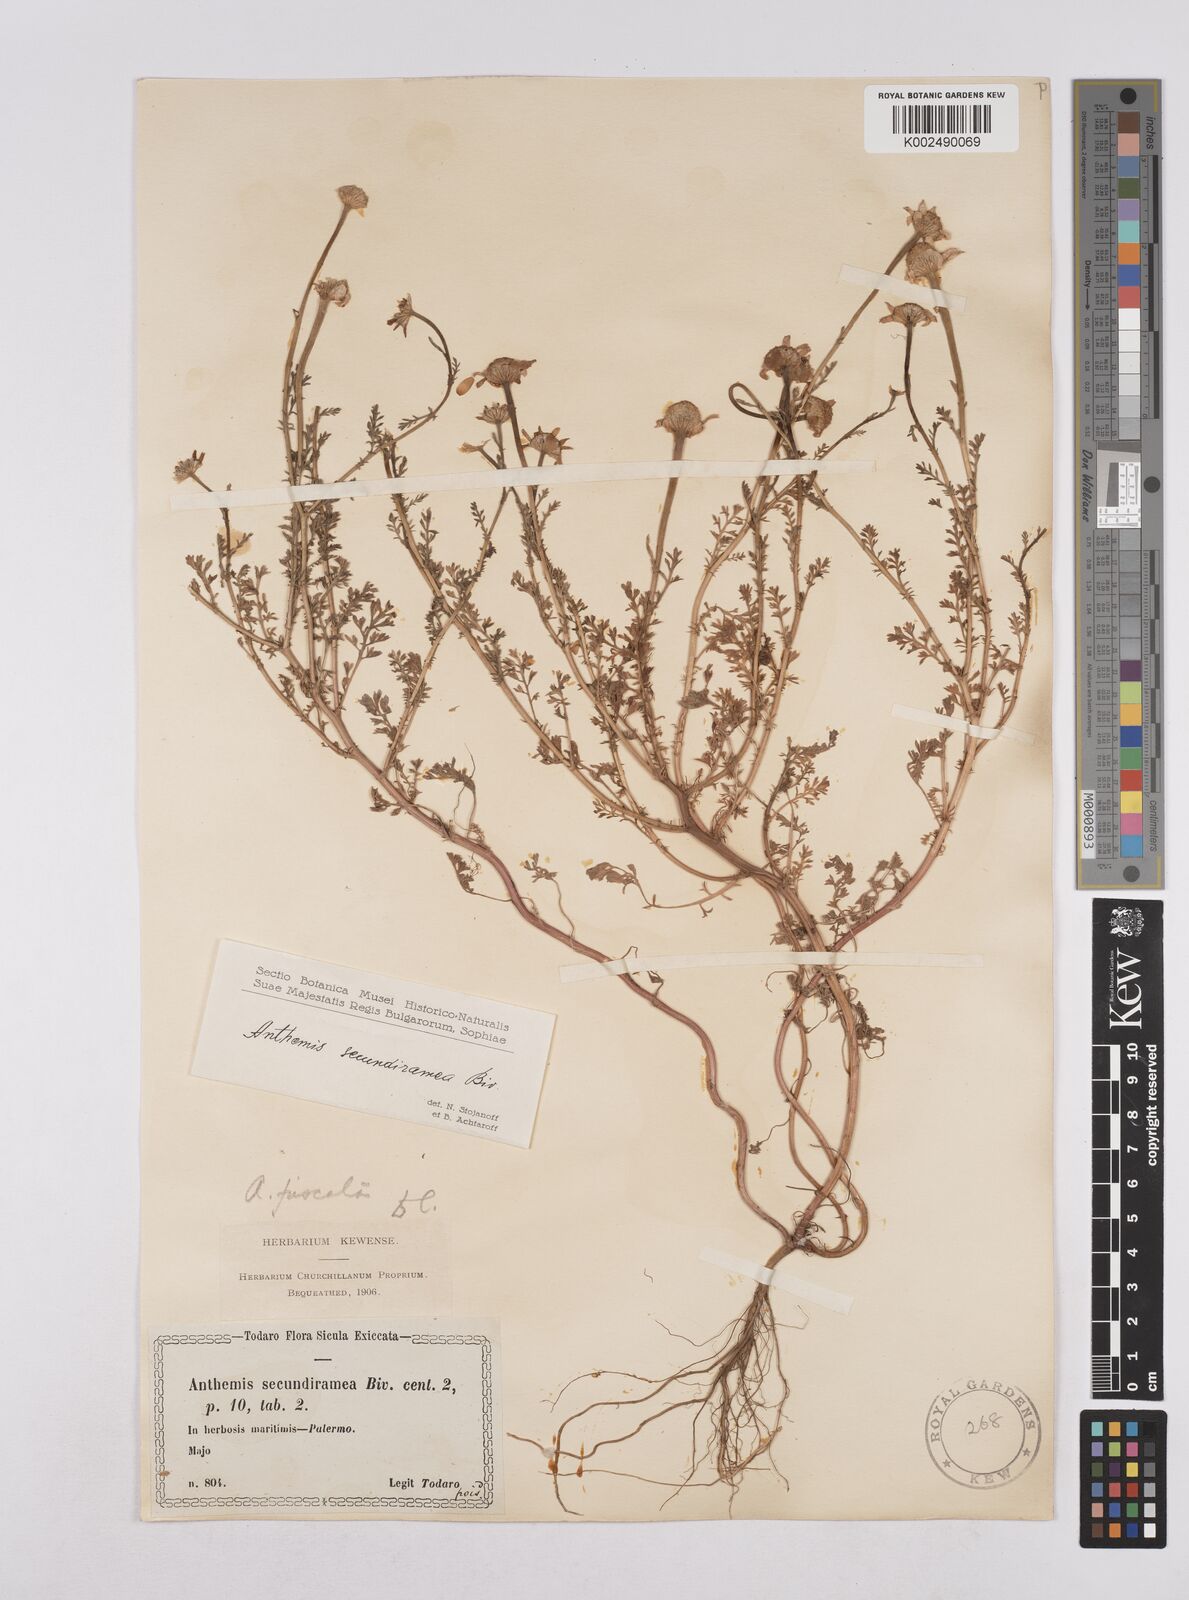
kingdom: Plantae
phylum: Tracheophyta
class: Magnoliopsida
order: Asterales
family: Asteraceae
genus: Chamaemelum
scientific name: Chamaemelum fuscatum
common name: Chamomile
